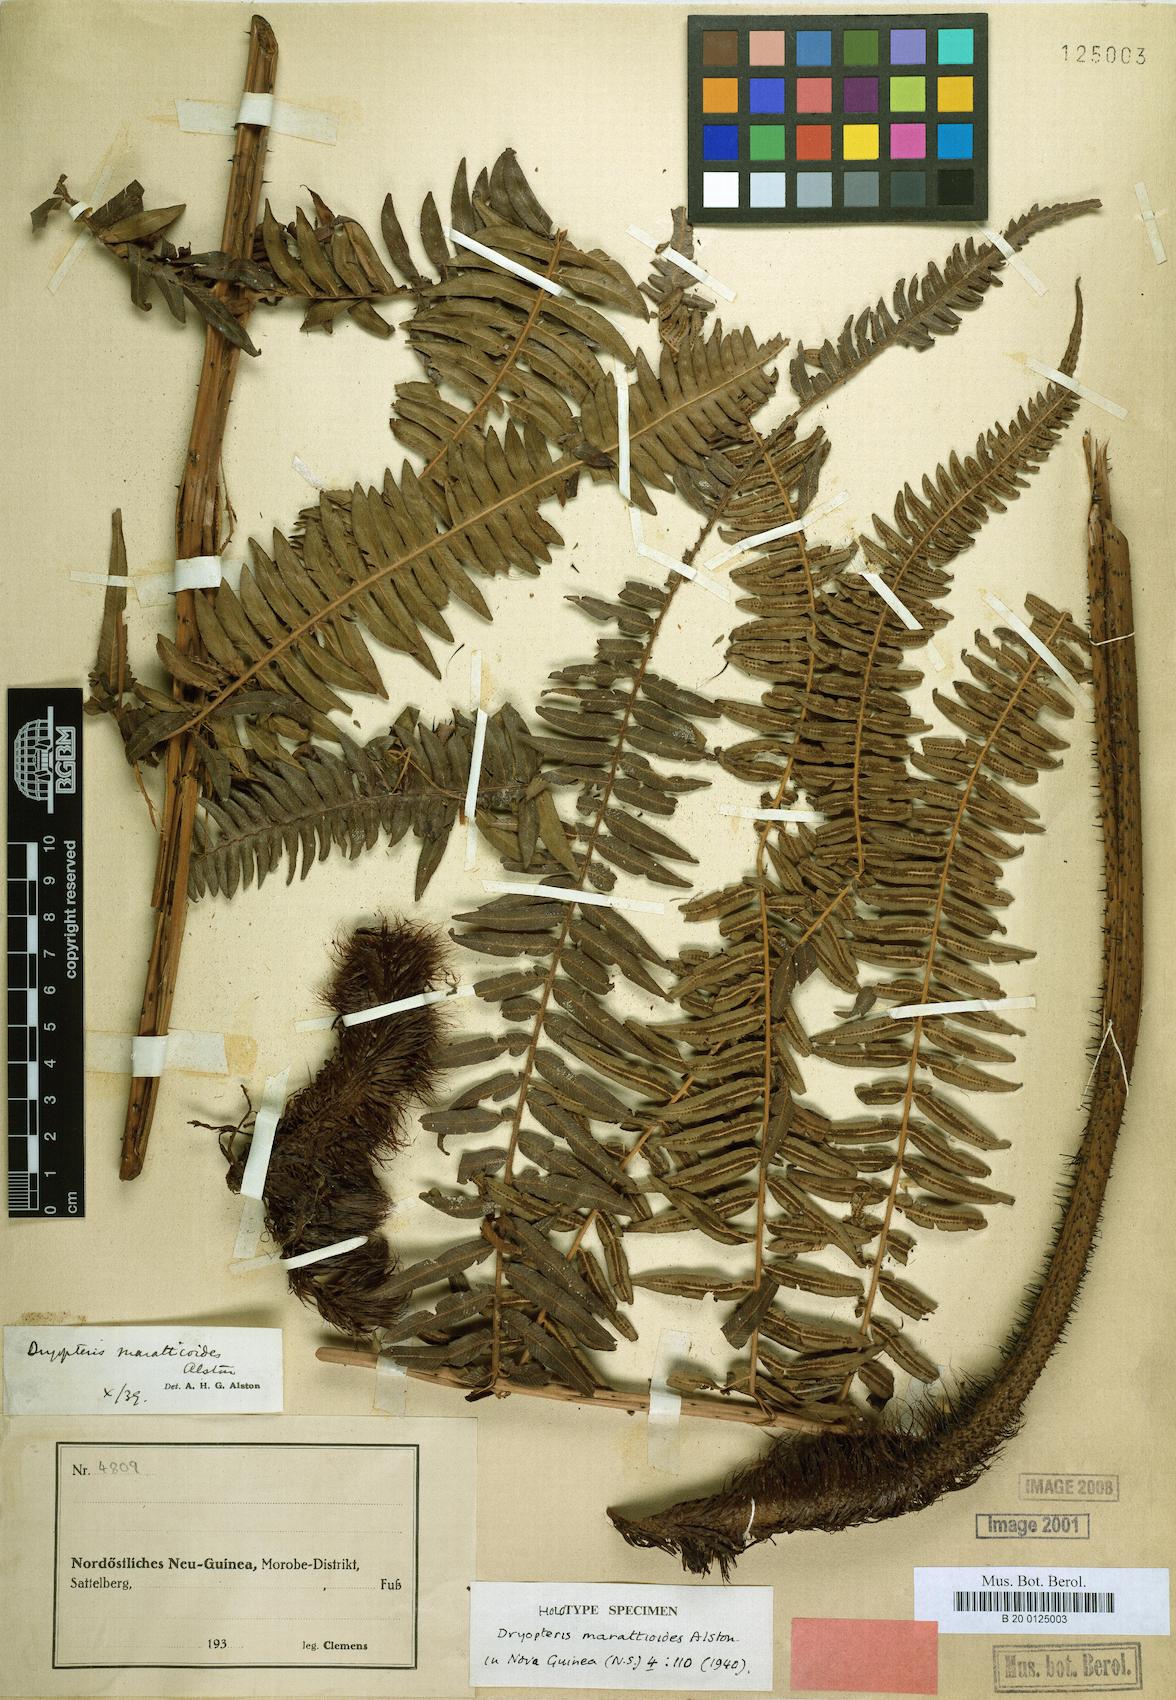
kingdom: Plantae
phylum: Tracheophyta
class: Polypodiopsida
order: Polypodiales
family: Thelypteridaceae
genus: Chingia
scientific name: Chingia marattioides
